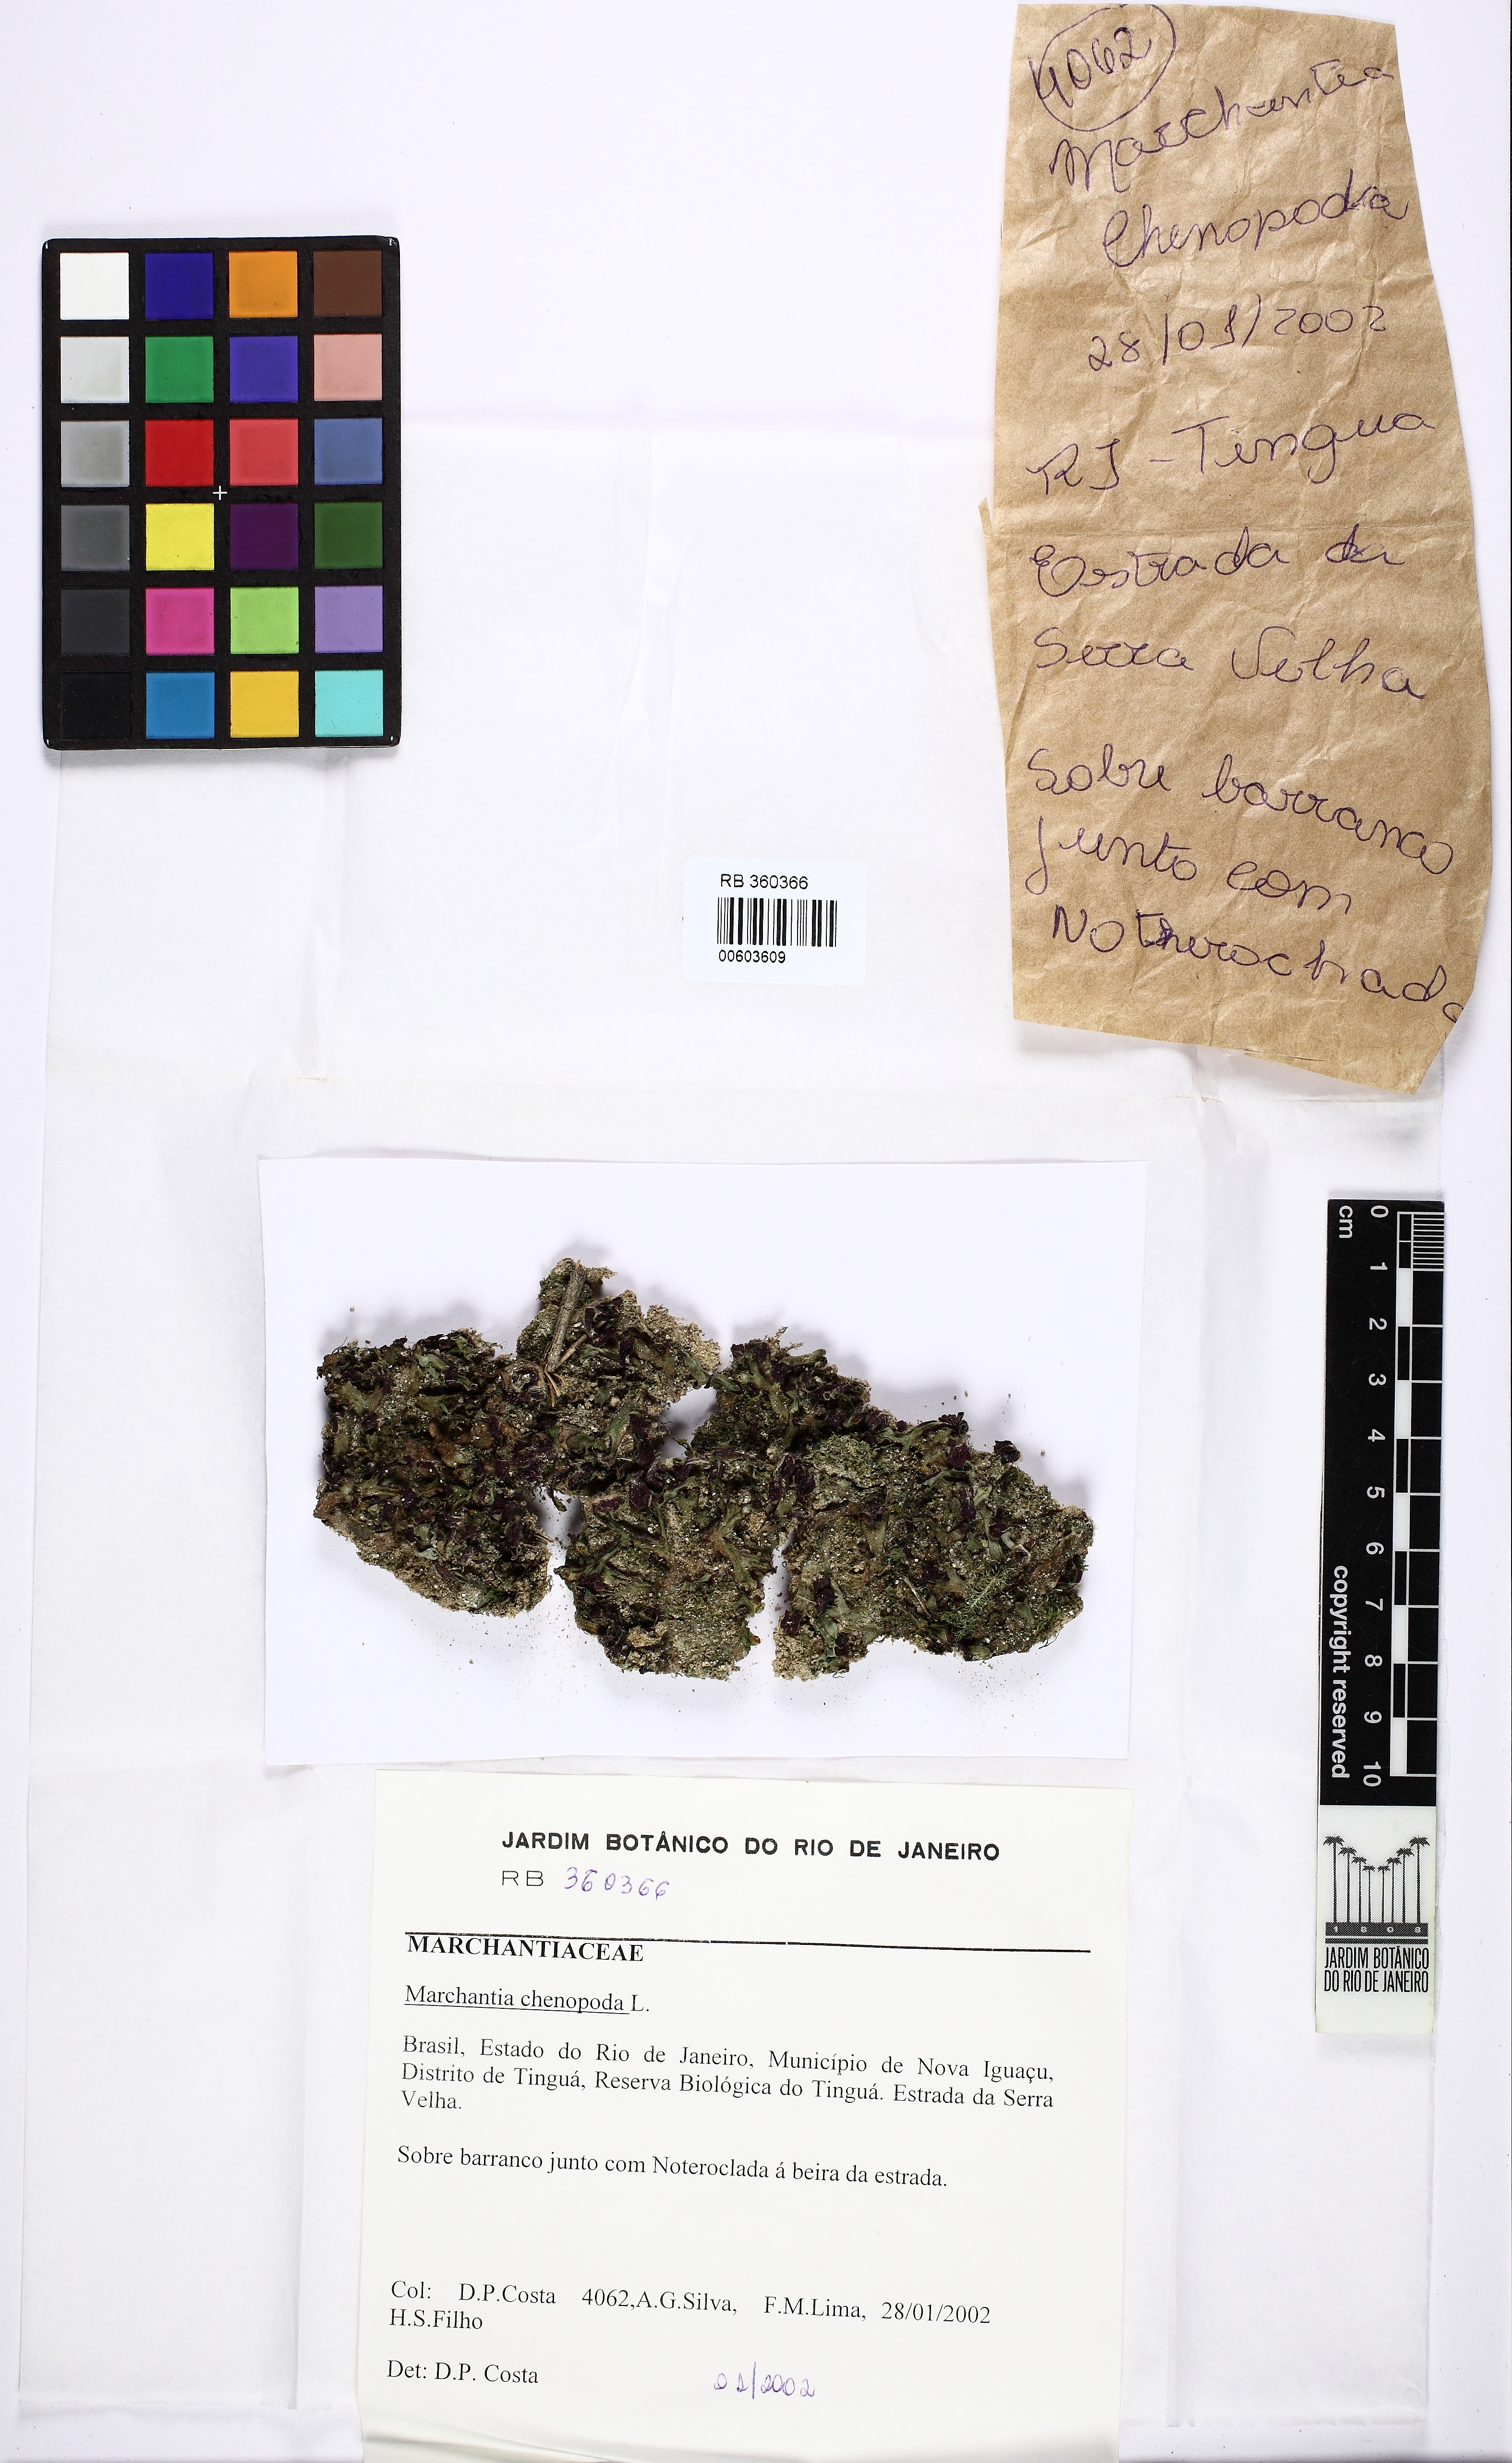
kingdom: Plantae
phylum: Marchantiophyta
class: Marchantiopsida
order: Marchantiales
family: Marchantiaceae
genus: Marchantia
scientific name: Marchantia chenopoda
